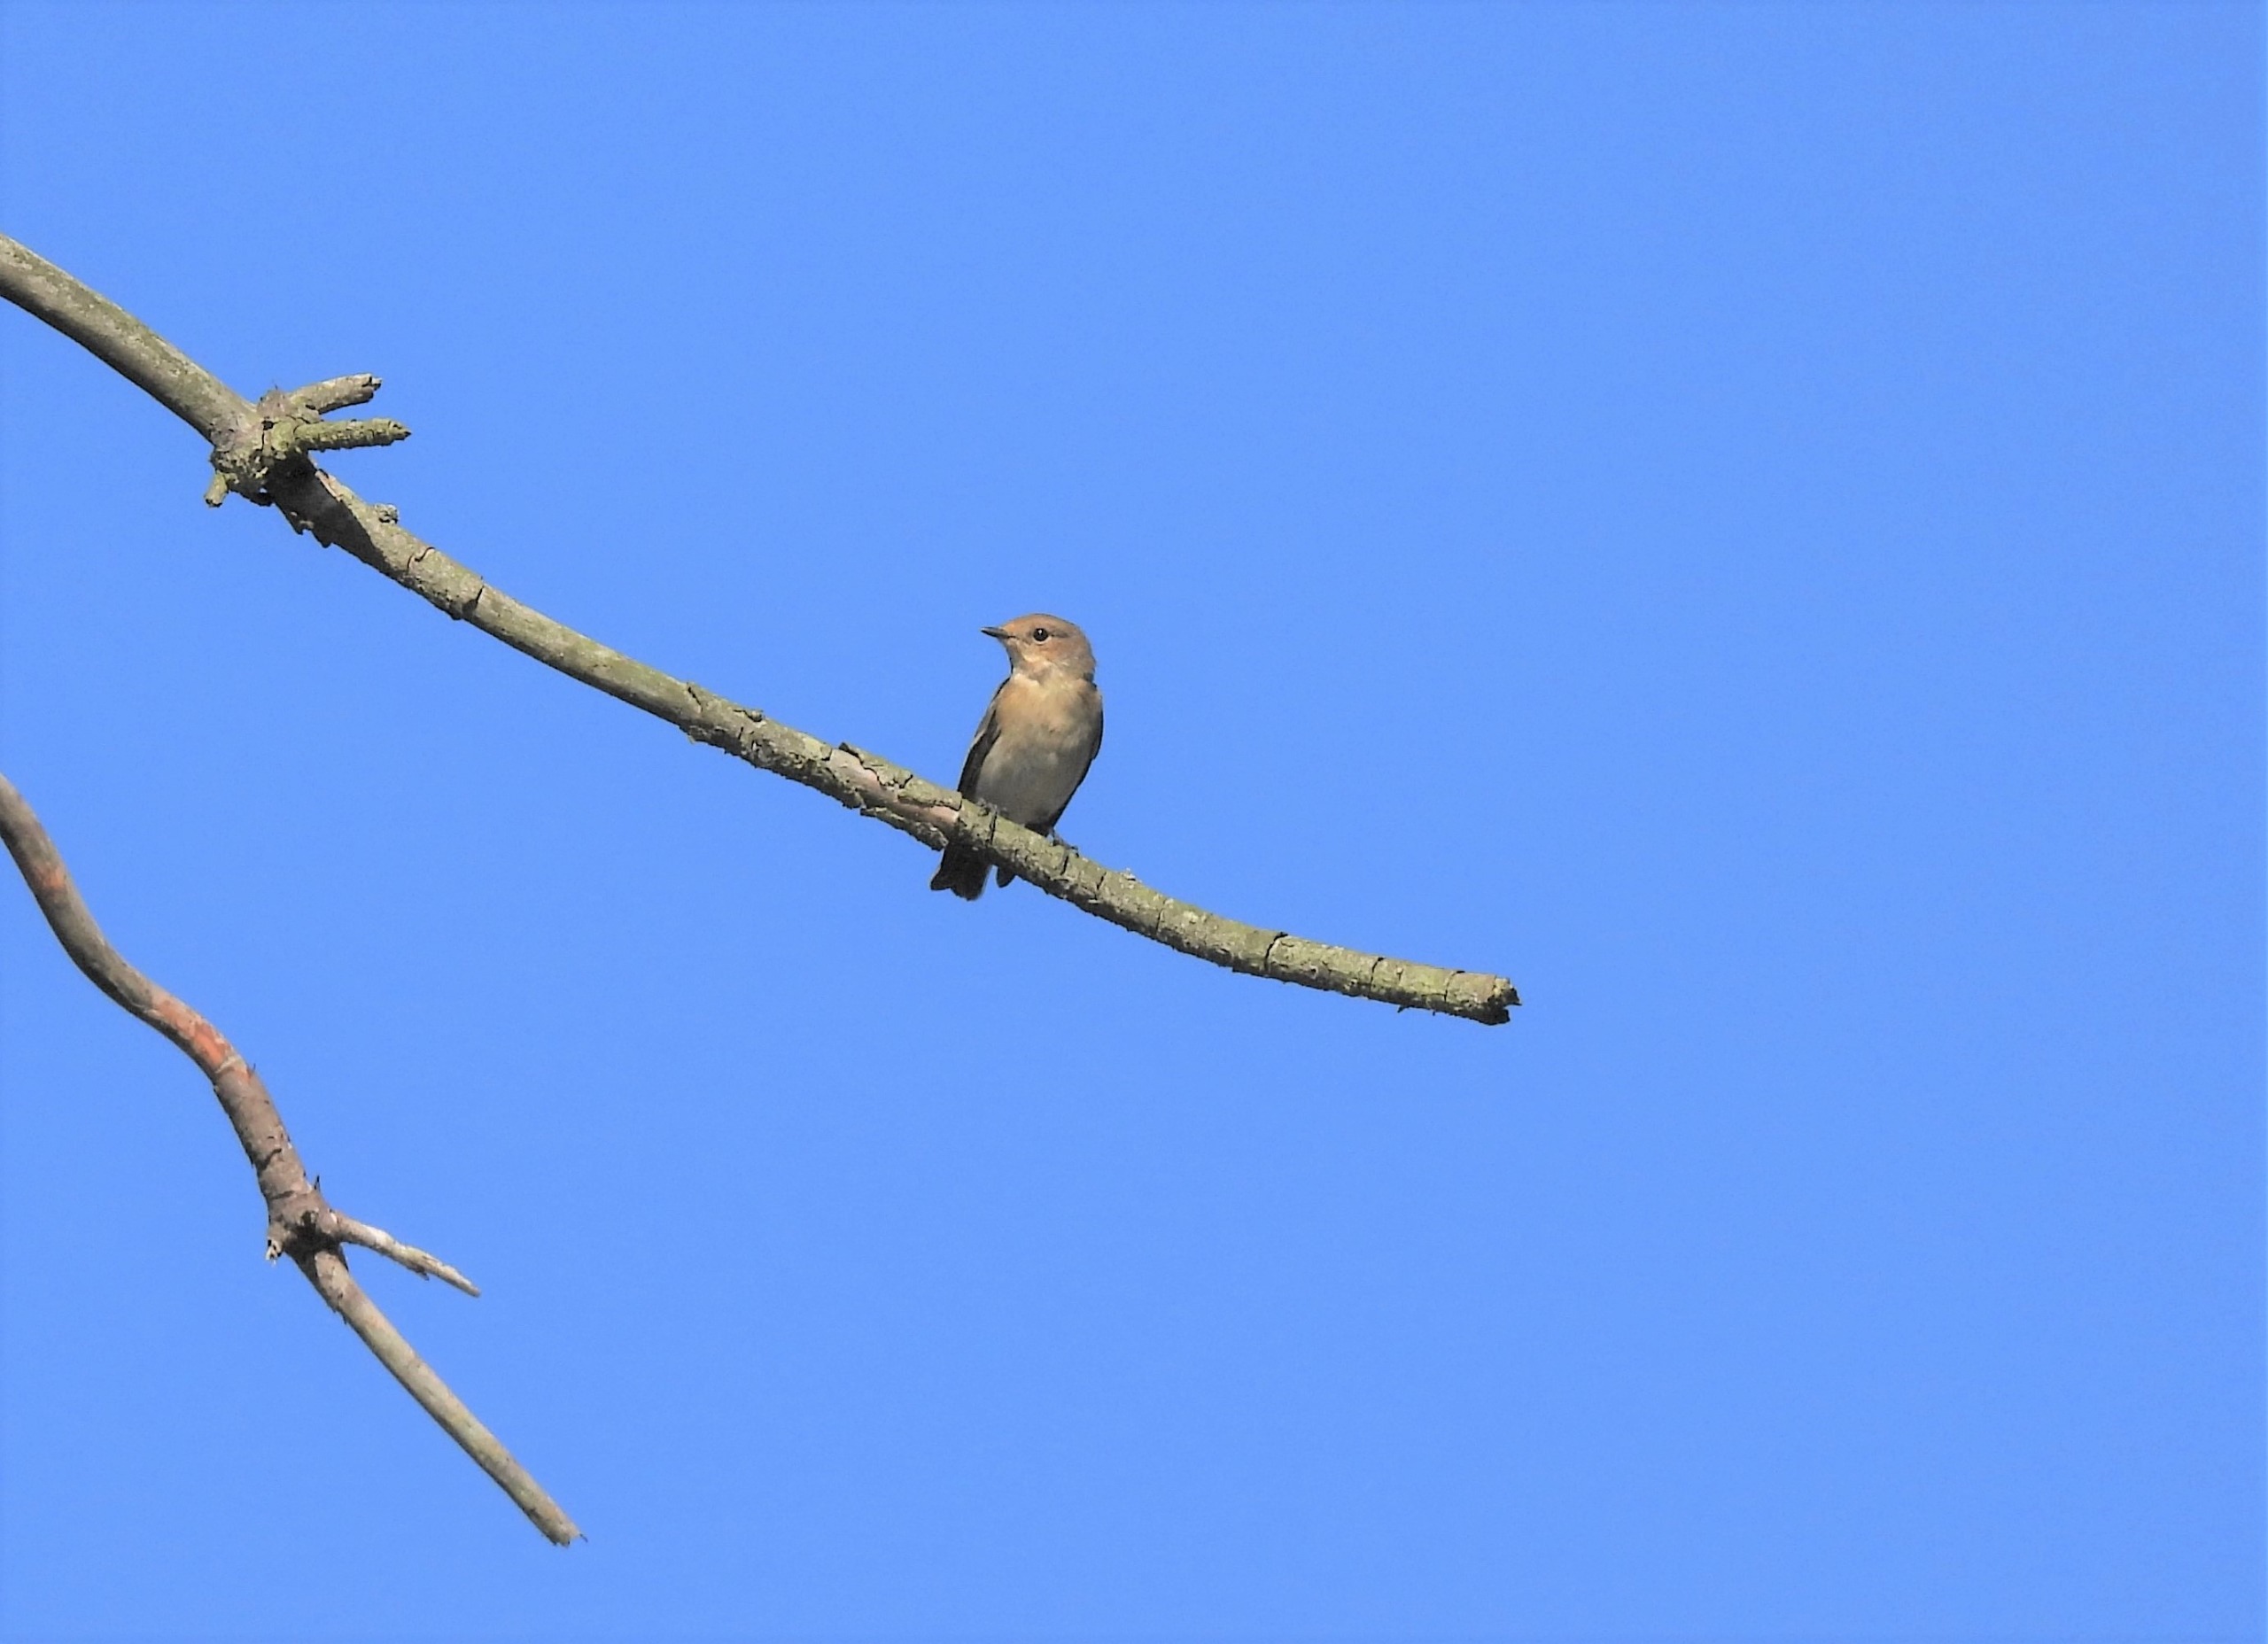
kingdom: Animalia
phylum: Chordata
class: Aves
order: Passeriformes
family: Muscicapidae
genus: Ficedula
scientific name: Ficedula hypoleuca
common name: Broget fluesnapper
